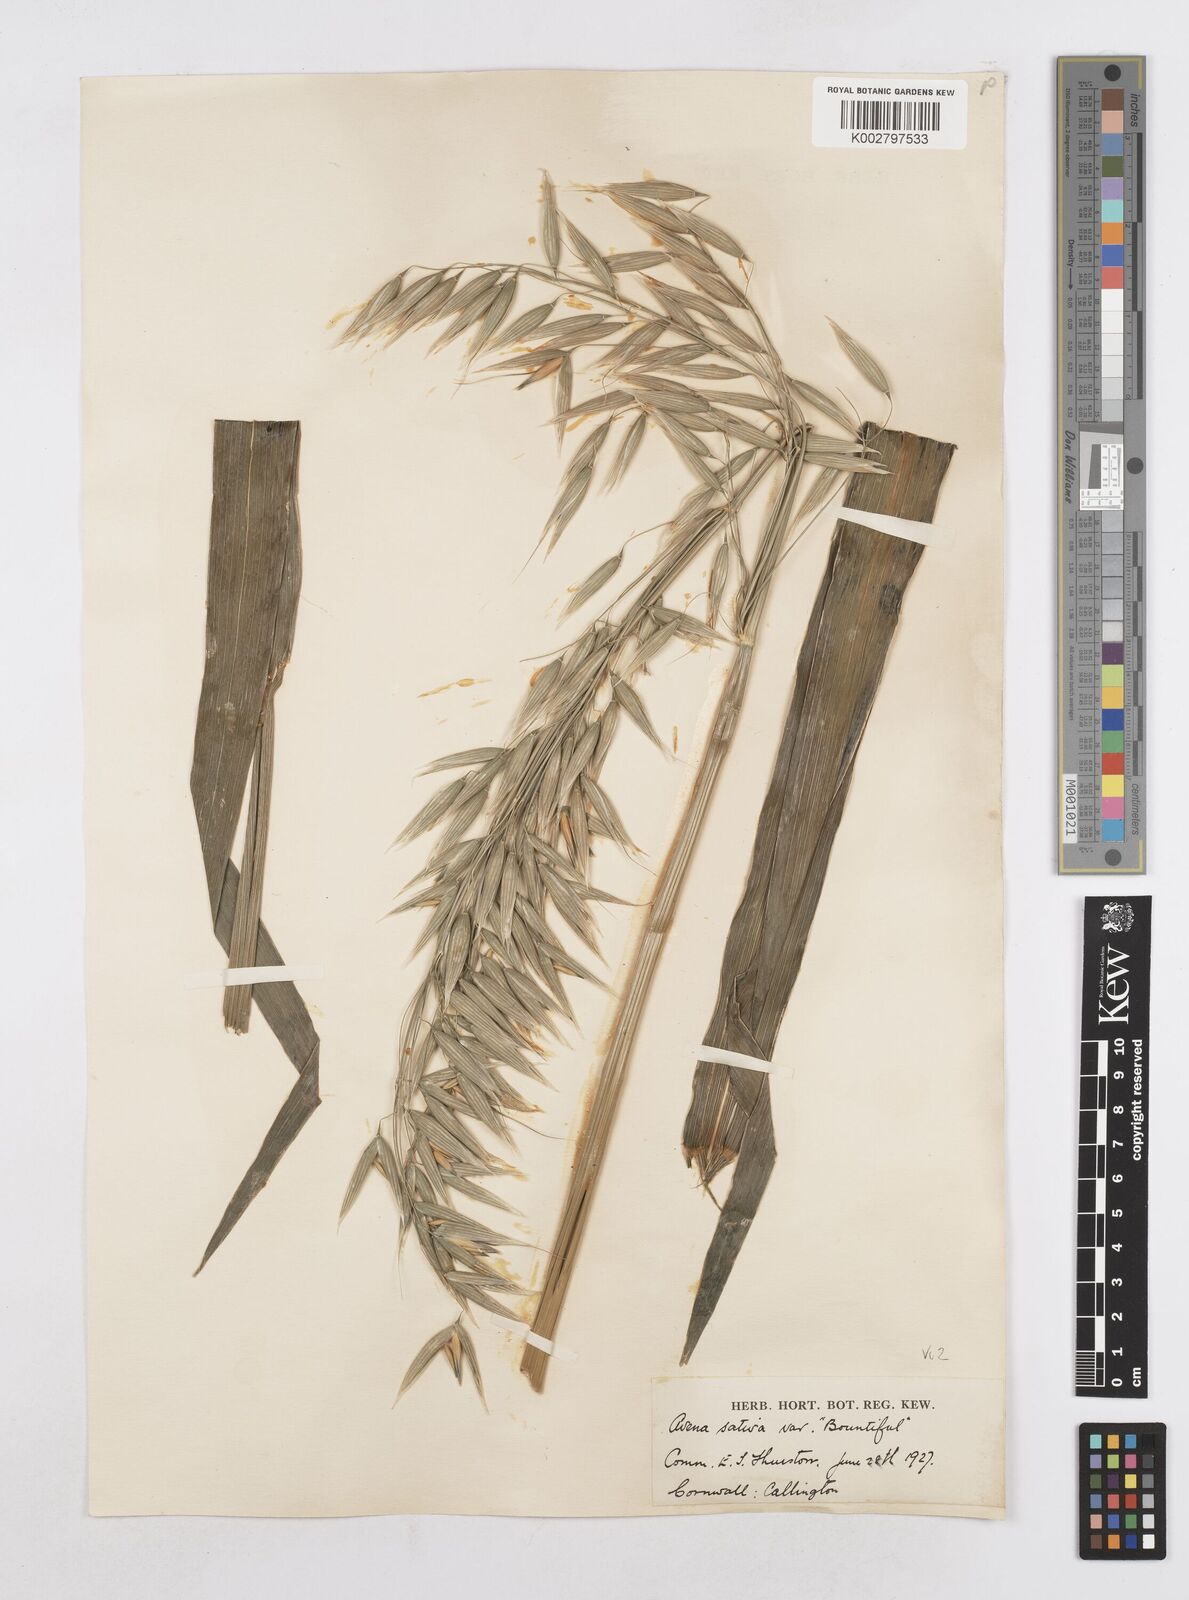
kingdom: Plantae
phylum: Tracheophyta
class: Liliopsida
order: Poales
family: Poaceae
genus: Avena
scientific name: Avena sativa
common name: Oat
